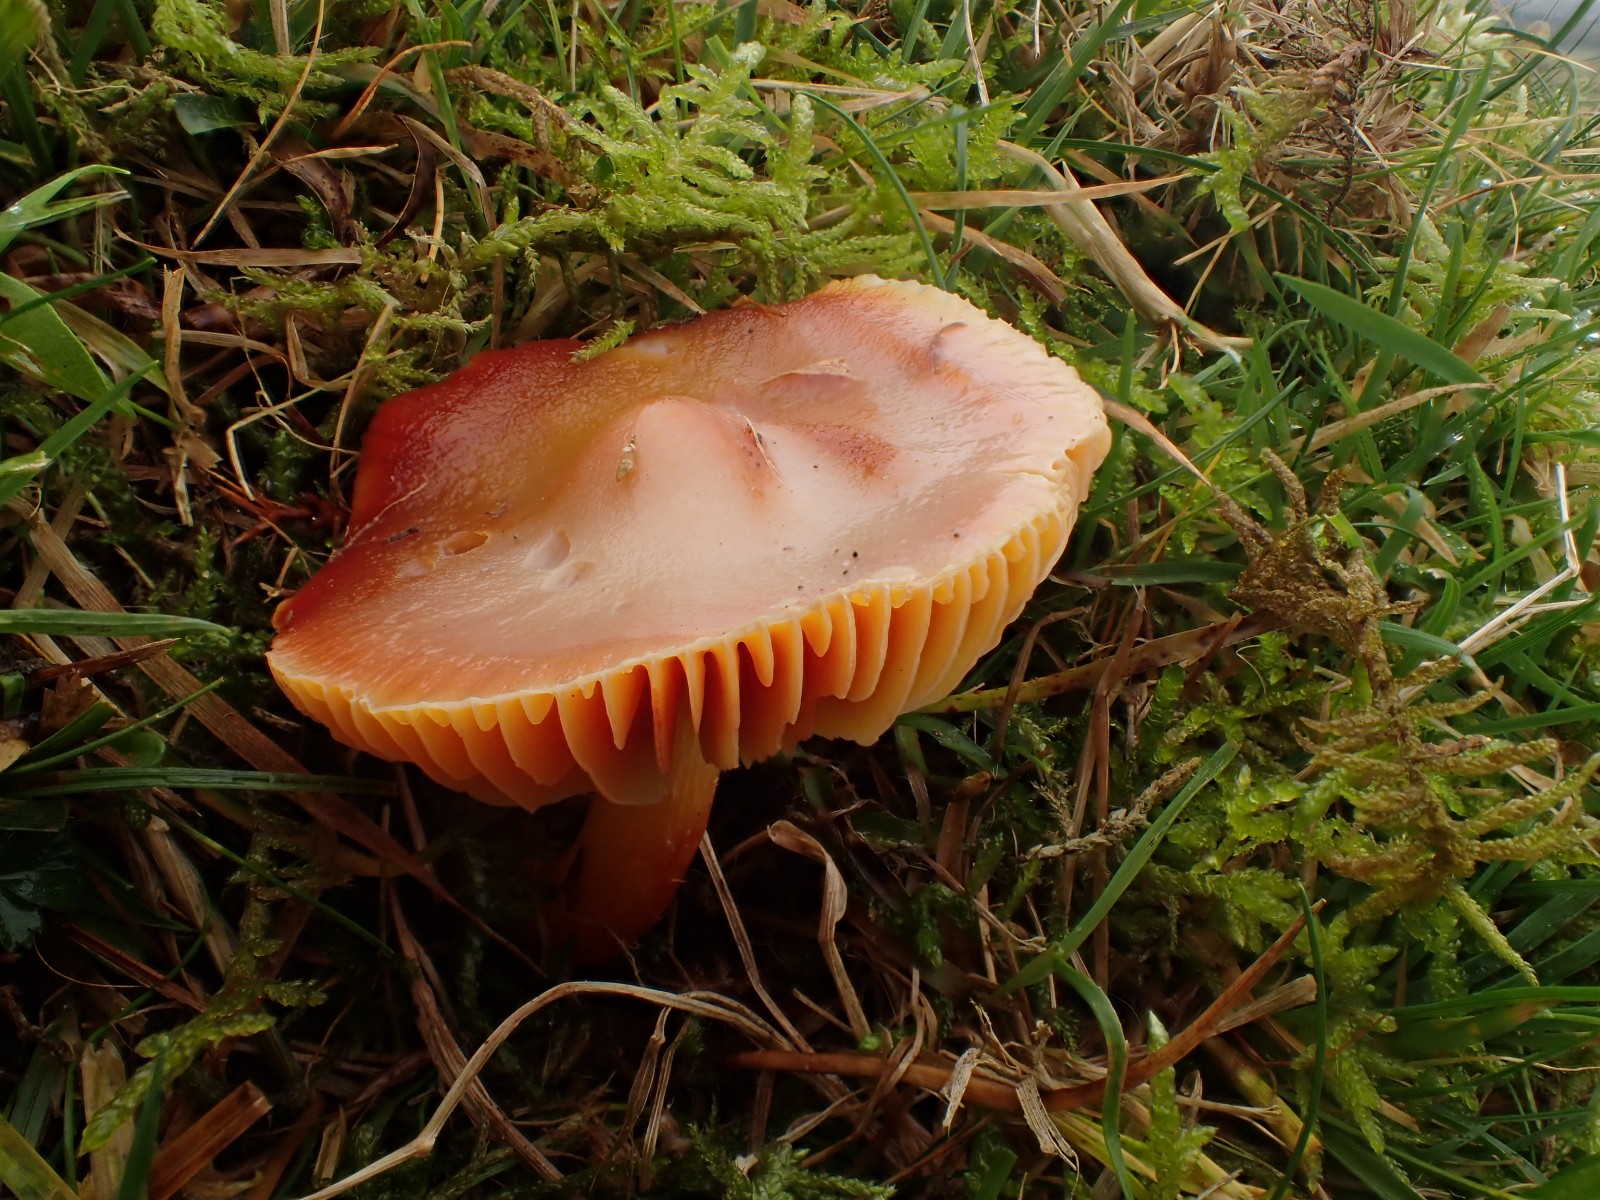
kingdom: Fungi
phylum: Basidiomycota
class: Agaricomycetes
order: Agaricales
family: Hygrophoraceae
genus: Hygrocybe
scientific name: Hygrocybe punicea
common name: skarlagen-vokshat
